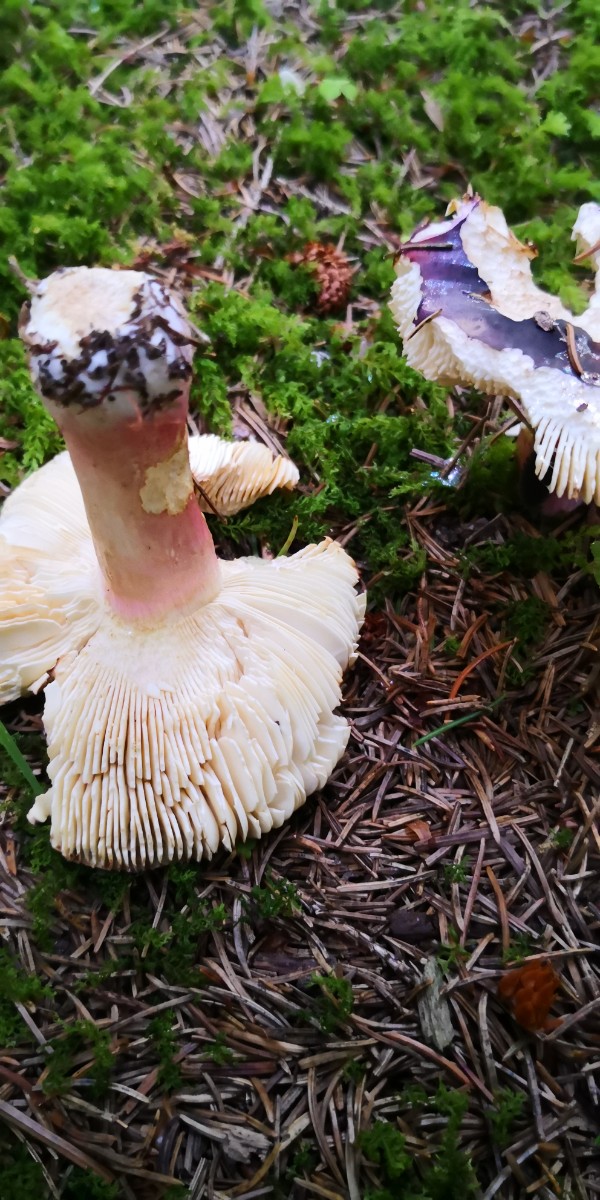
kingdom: Fungi
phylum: Basidiomycota
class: Agaricomycetes
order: Russulales
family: Russulaceae
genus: Russula
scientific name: Russula xerampelina
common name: hummer-skørhat
